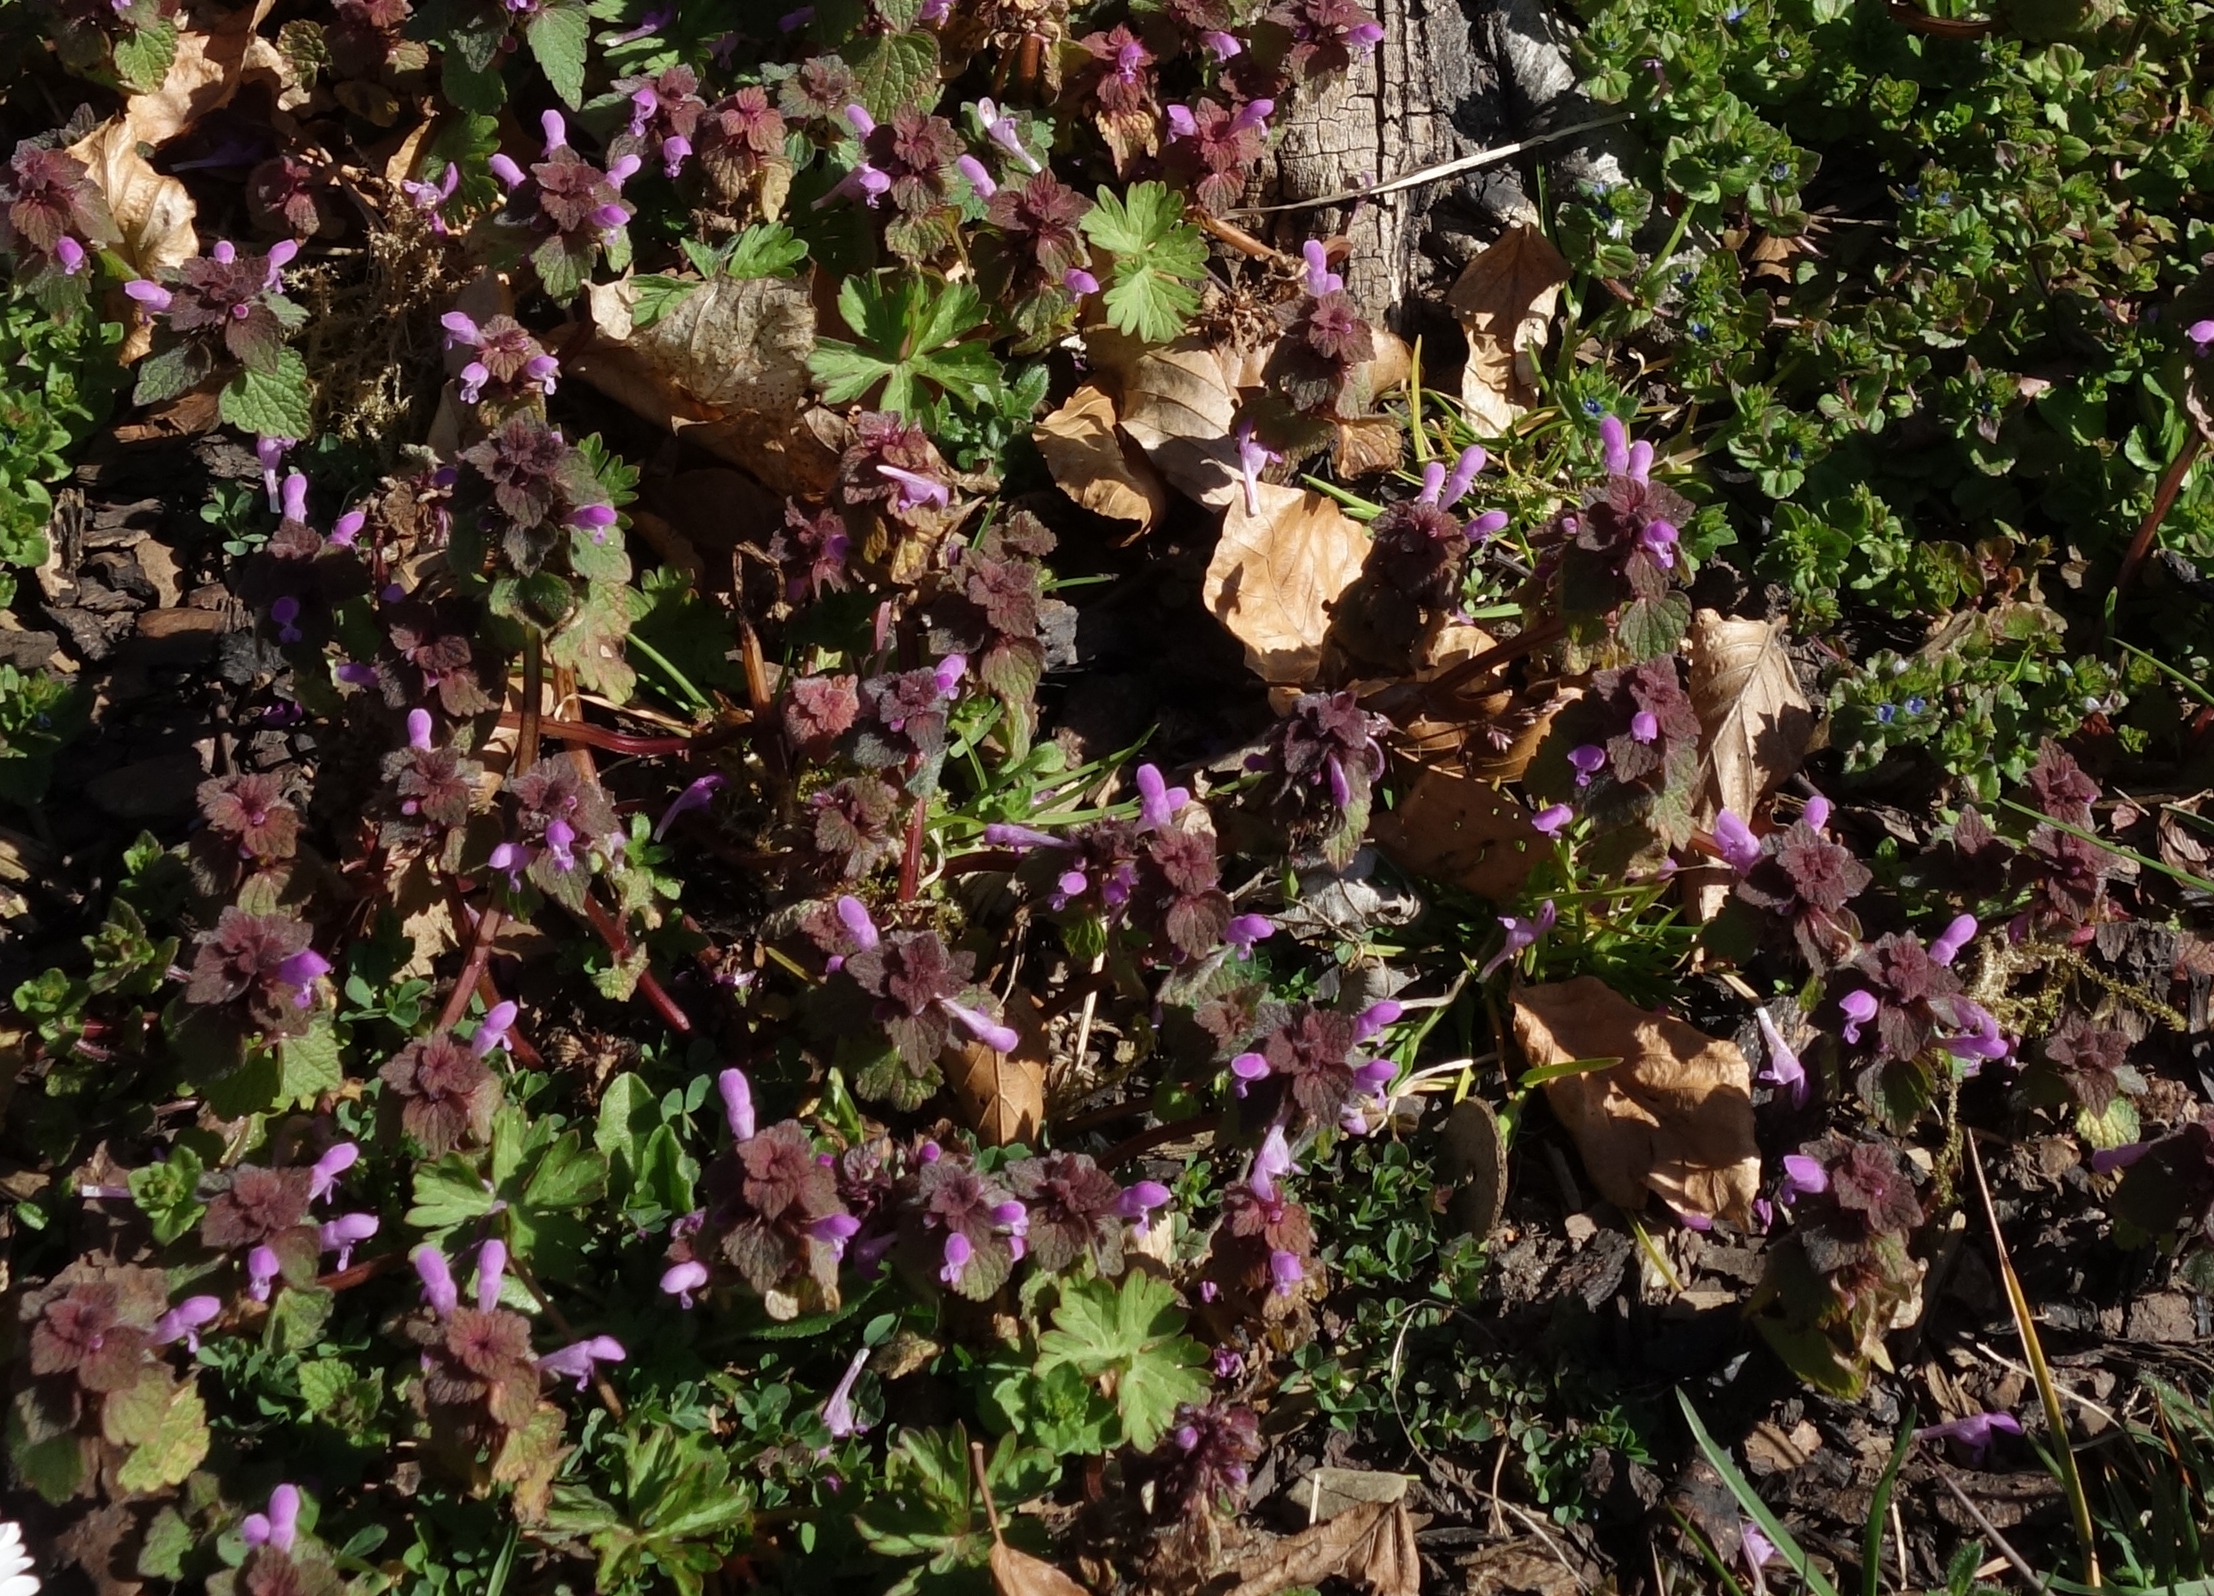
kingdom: Plantae
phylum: Tracheophyta
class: Magnoliopsida
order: Lamiales
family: Lamiaceae
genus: Lamium
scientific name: Lamium purpureum
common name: Rød tvetand
